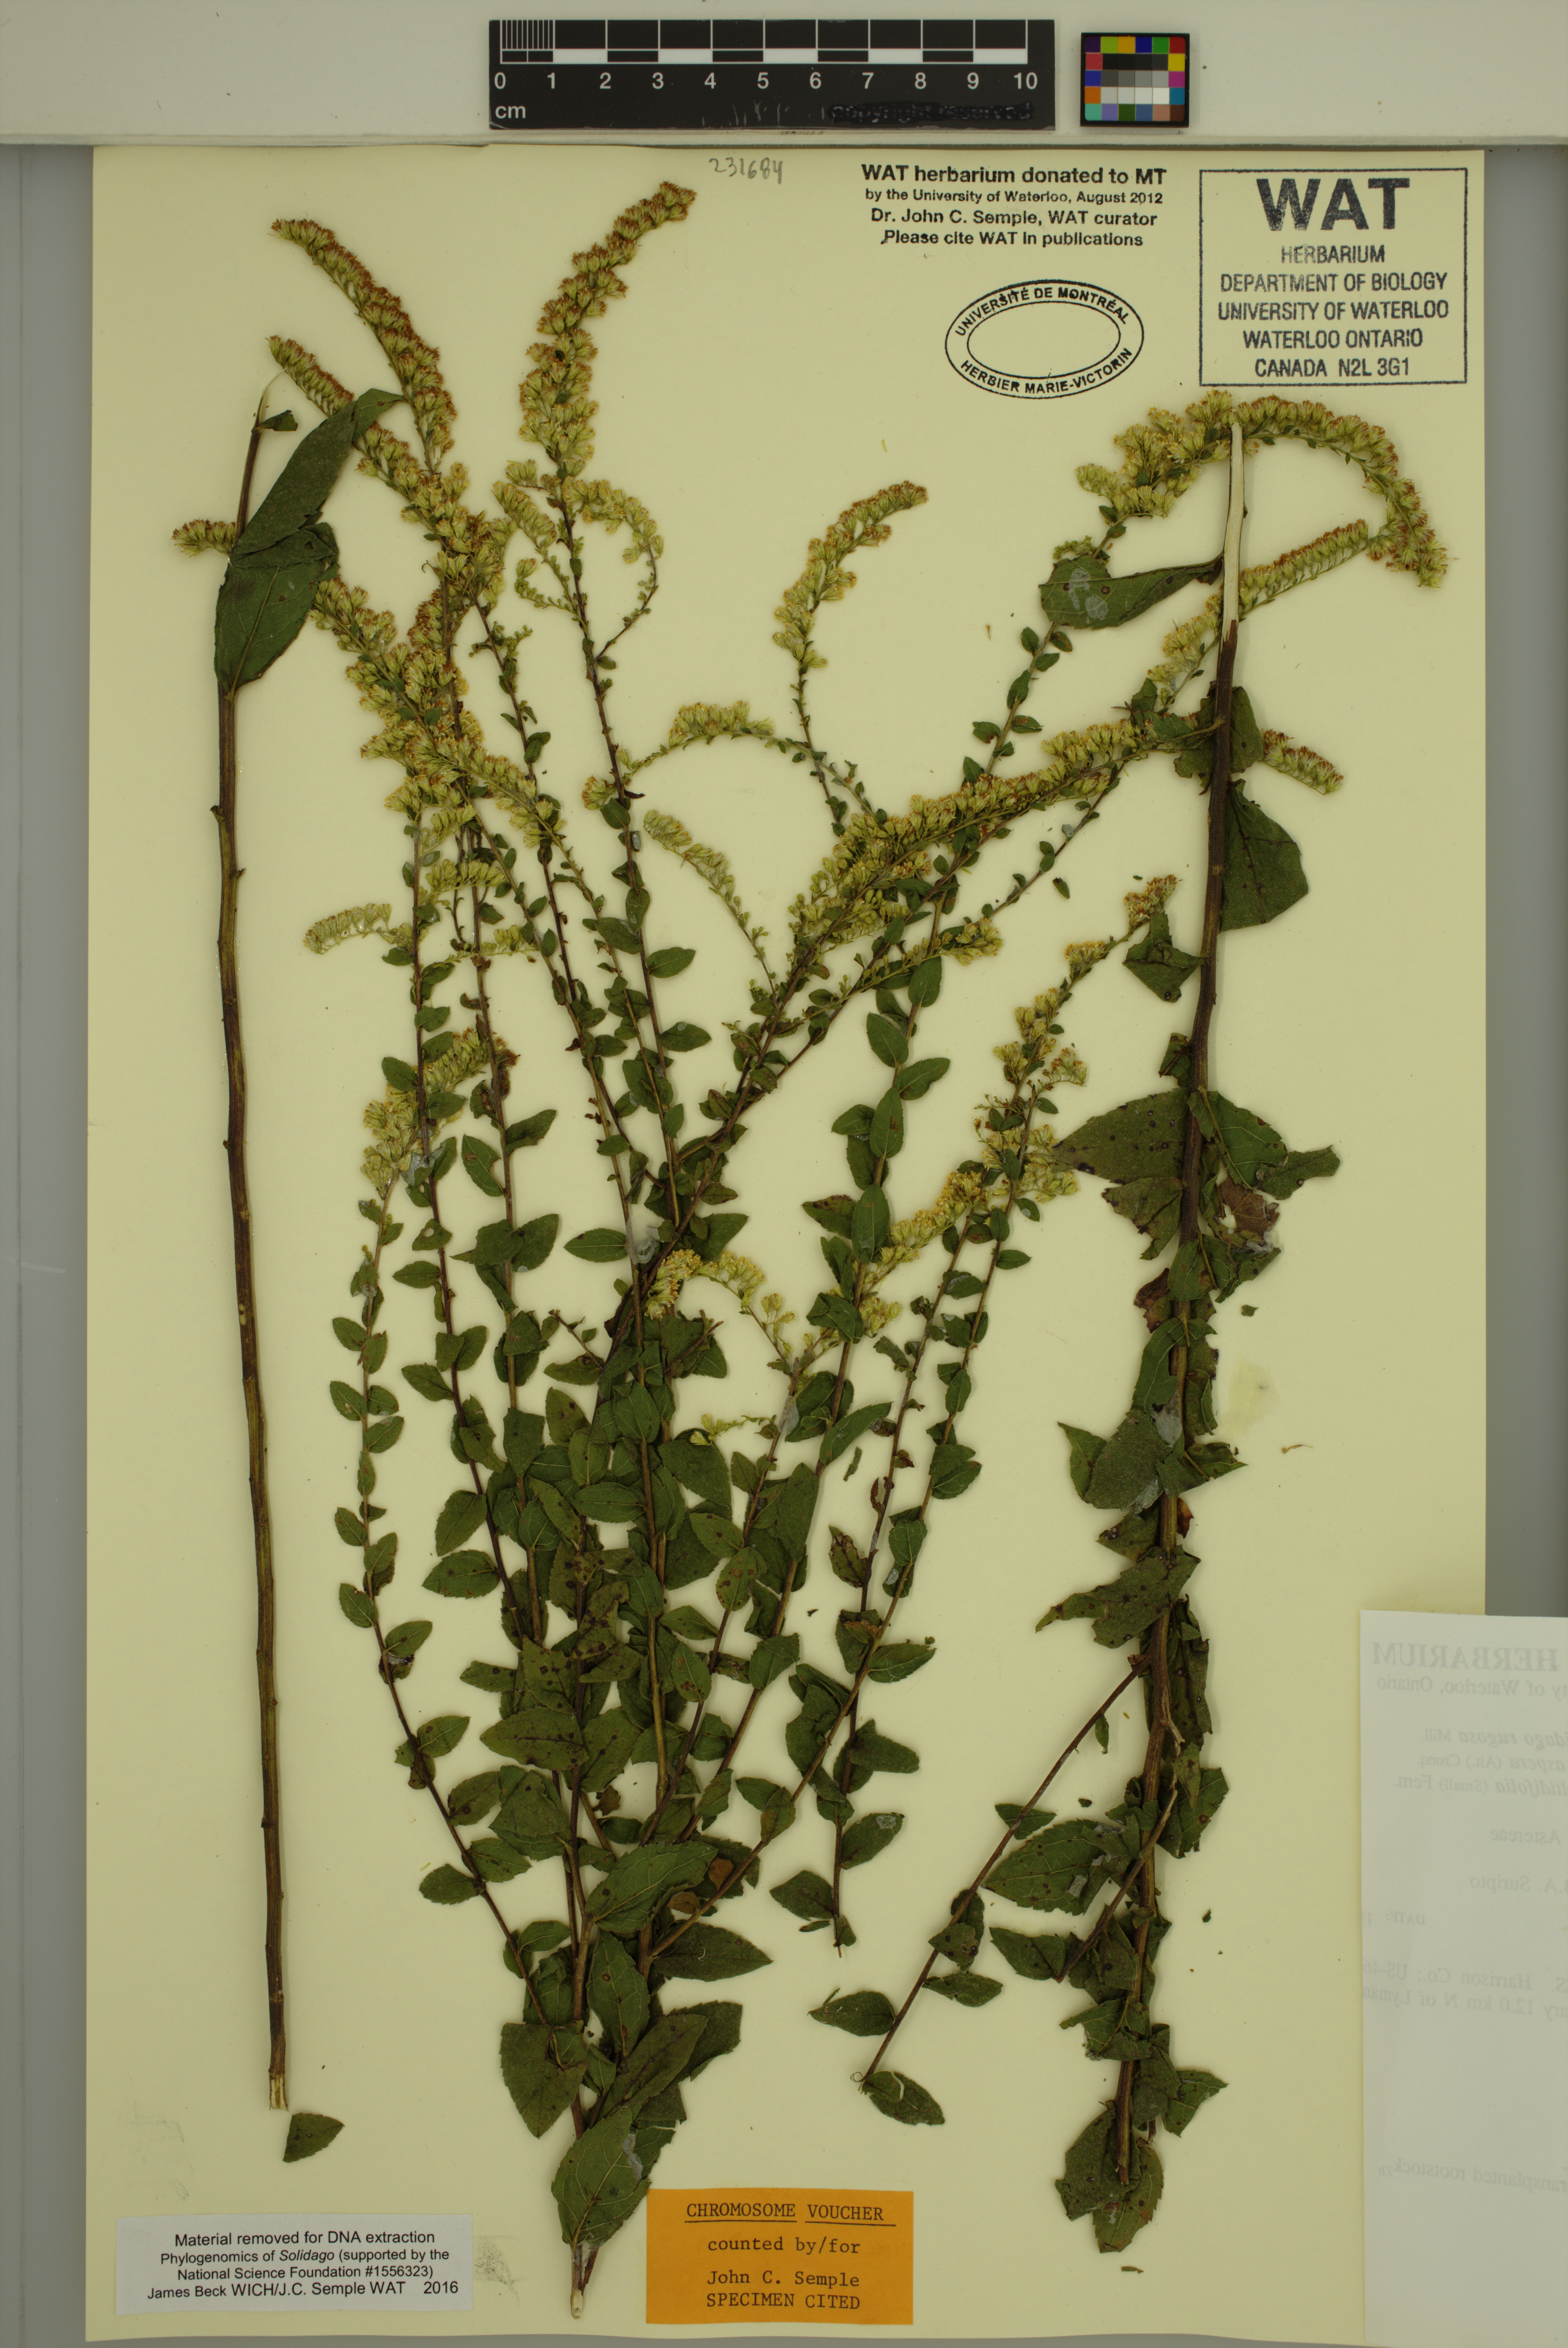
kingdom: Plantae
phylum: Tracheophyta
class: Magnoliopsida
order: Asterales
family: Asteraceae
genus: Solidago
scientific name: Solidago rugosa
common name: Rough-stemmed goldenrod
